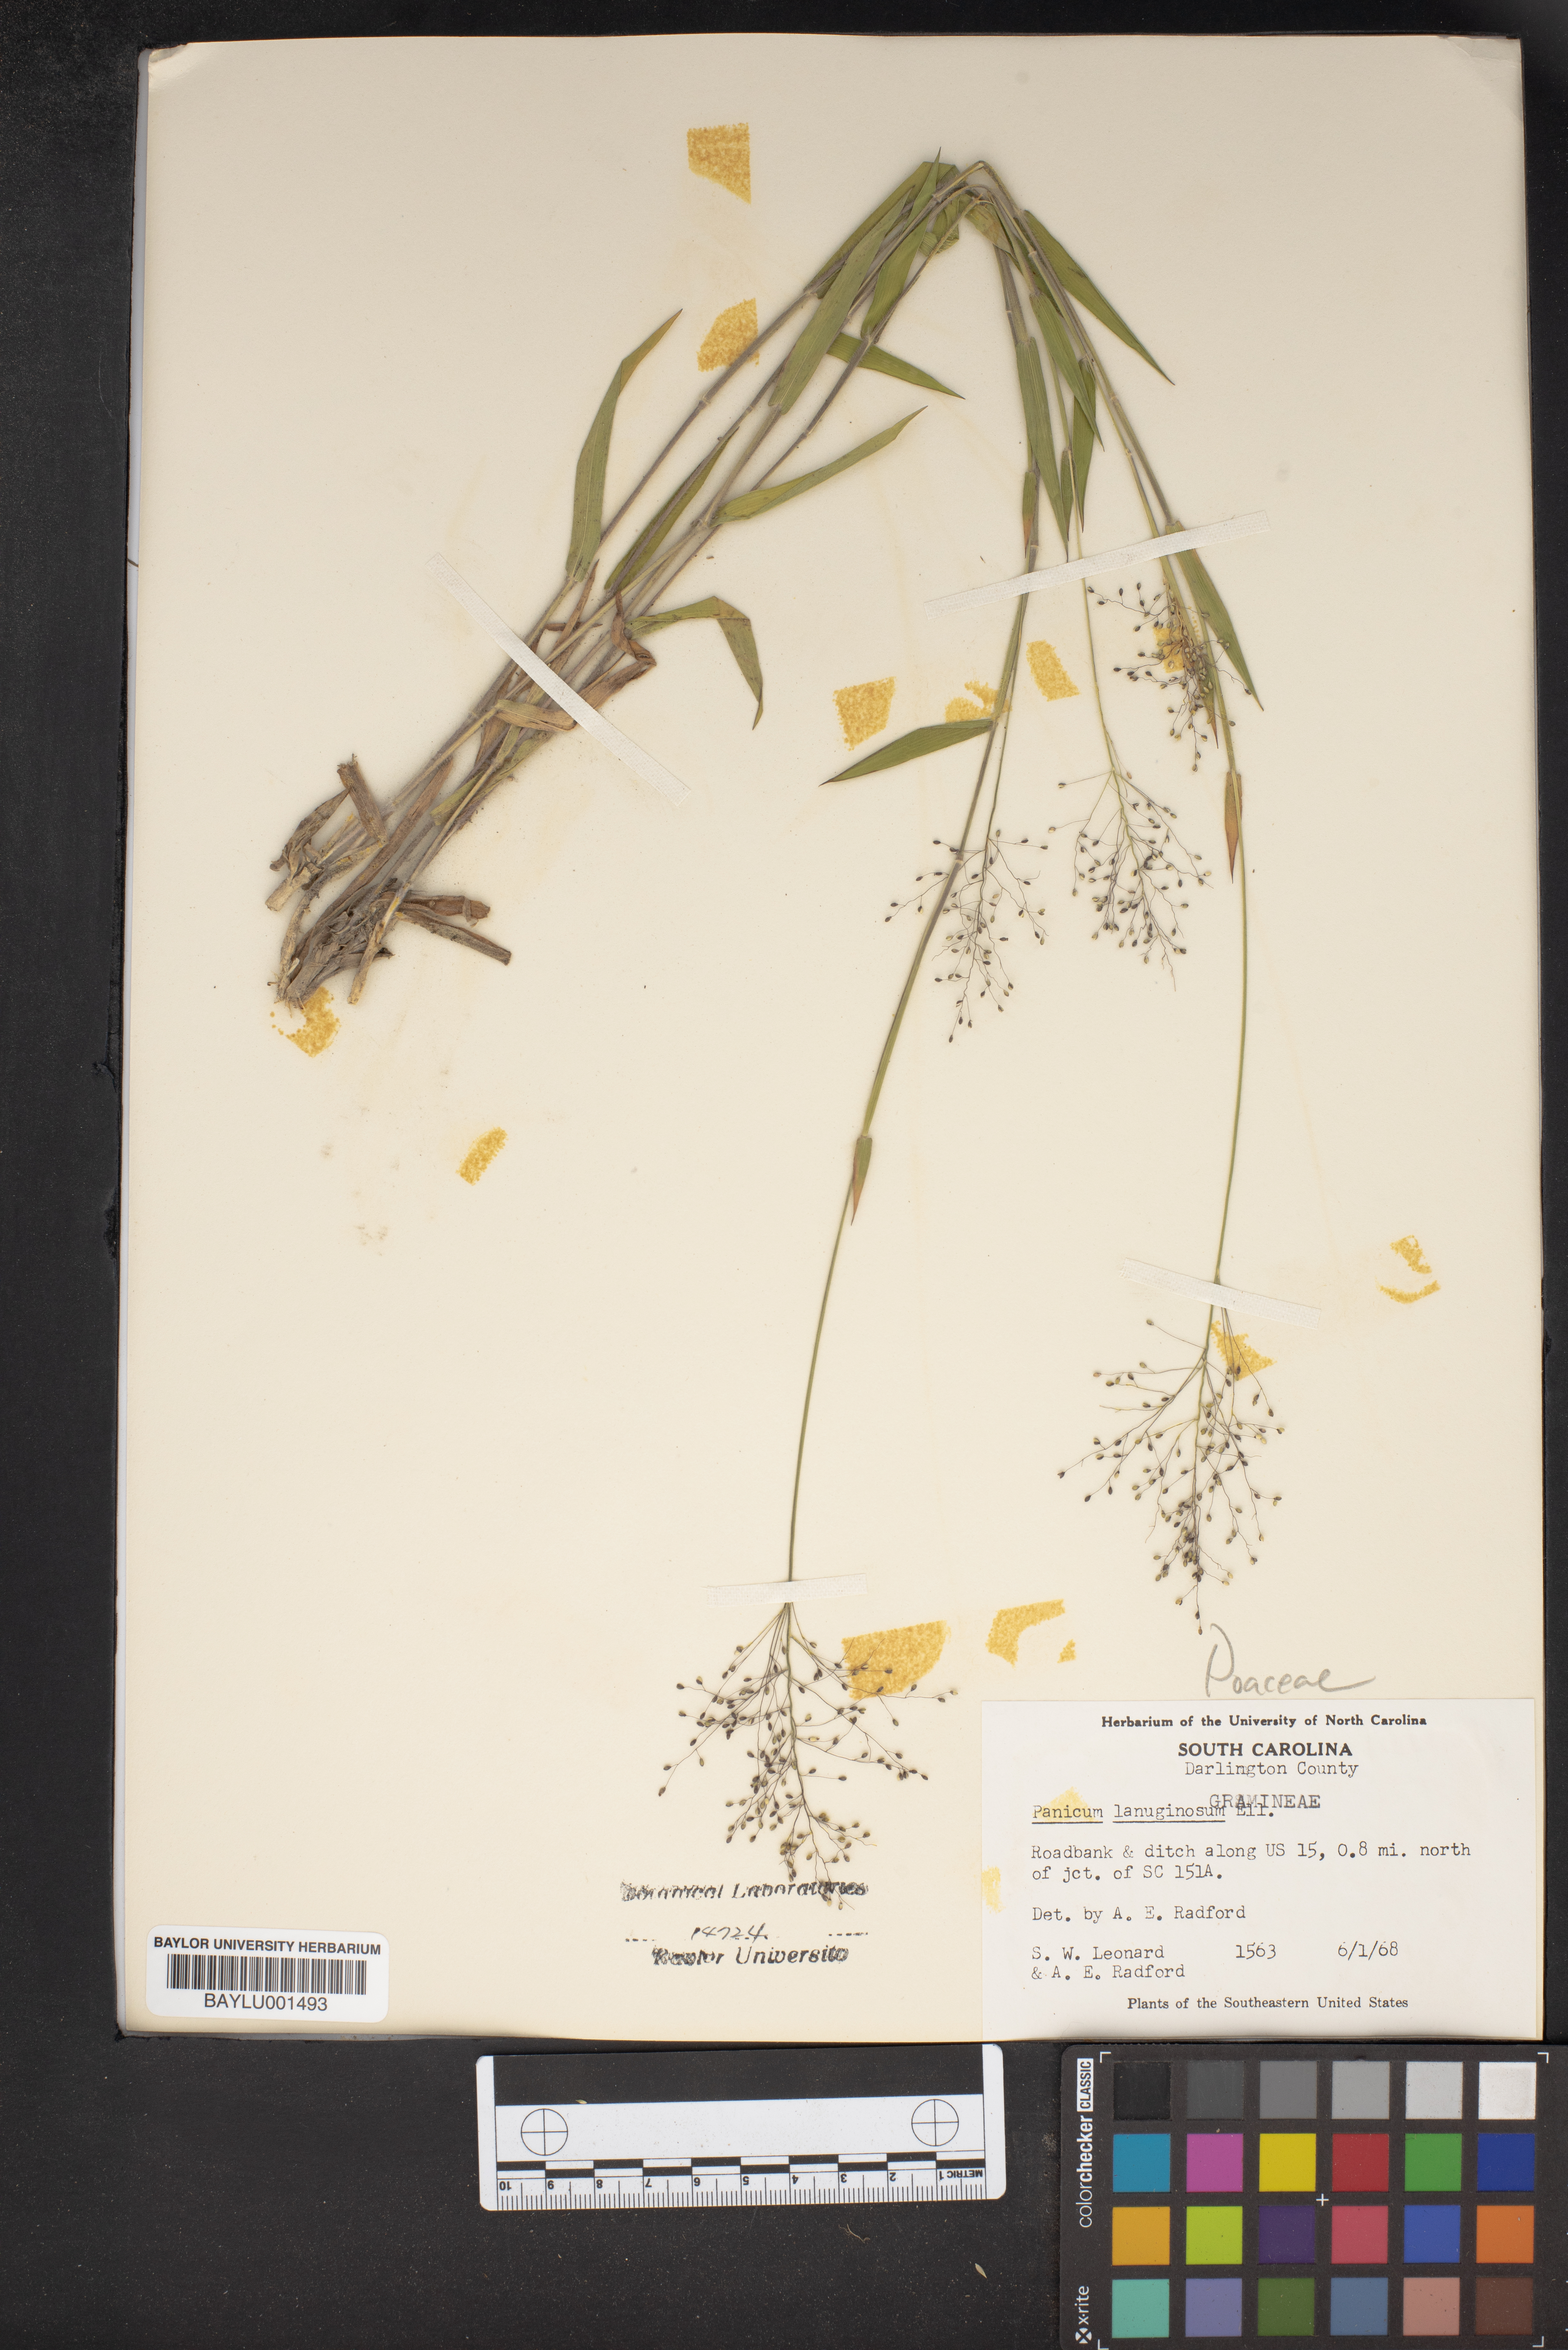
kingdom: Plantae
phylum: Tracheophyta
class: Liliopsida
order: Poales
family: Poaceae
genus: Dichanthelium
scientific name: Dichanthelium lanuginosum
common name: Woolly panicgrass
